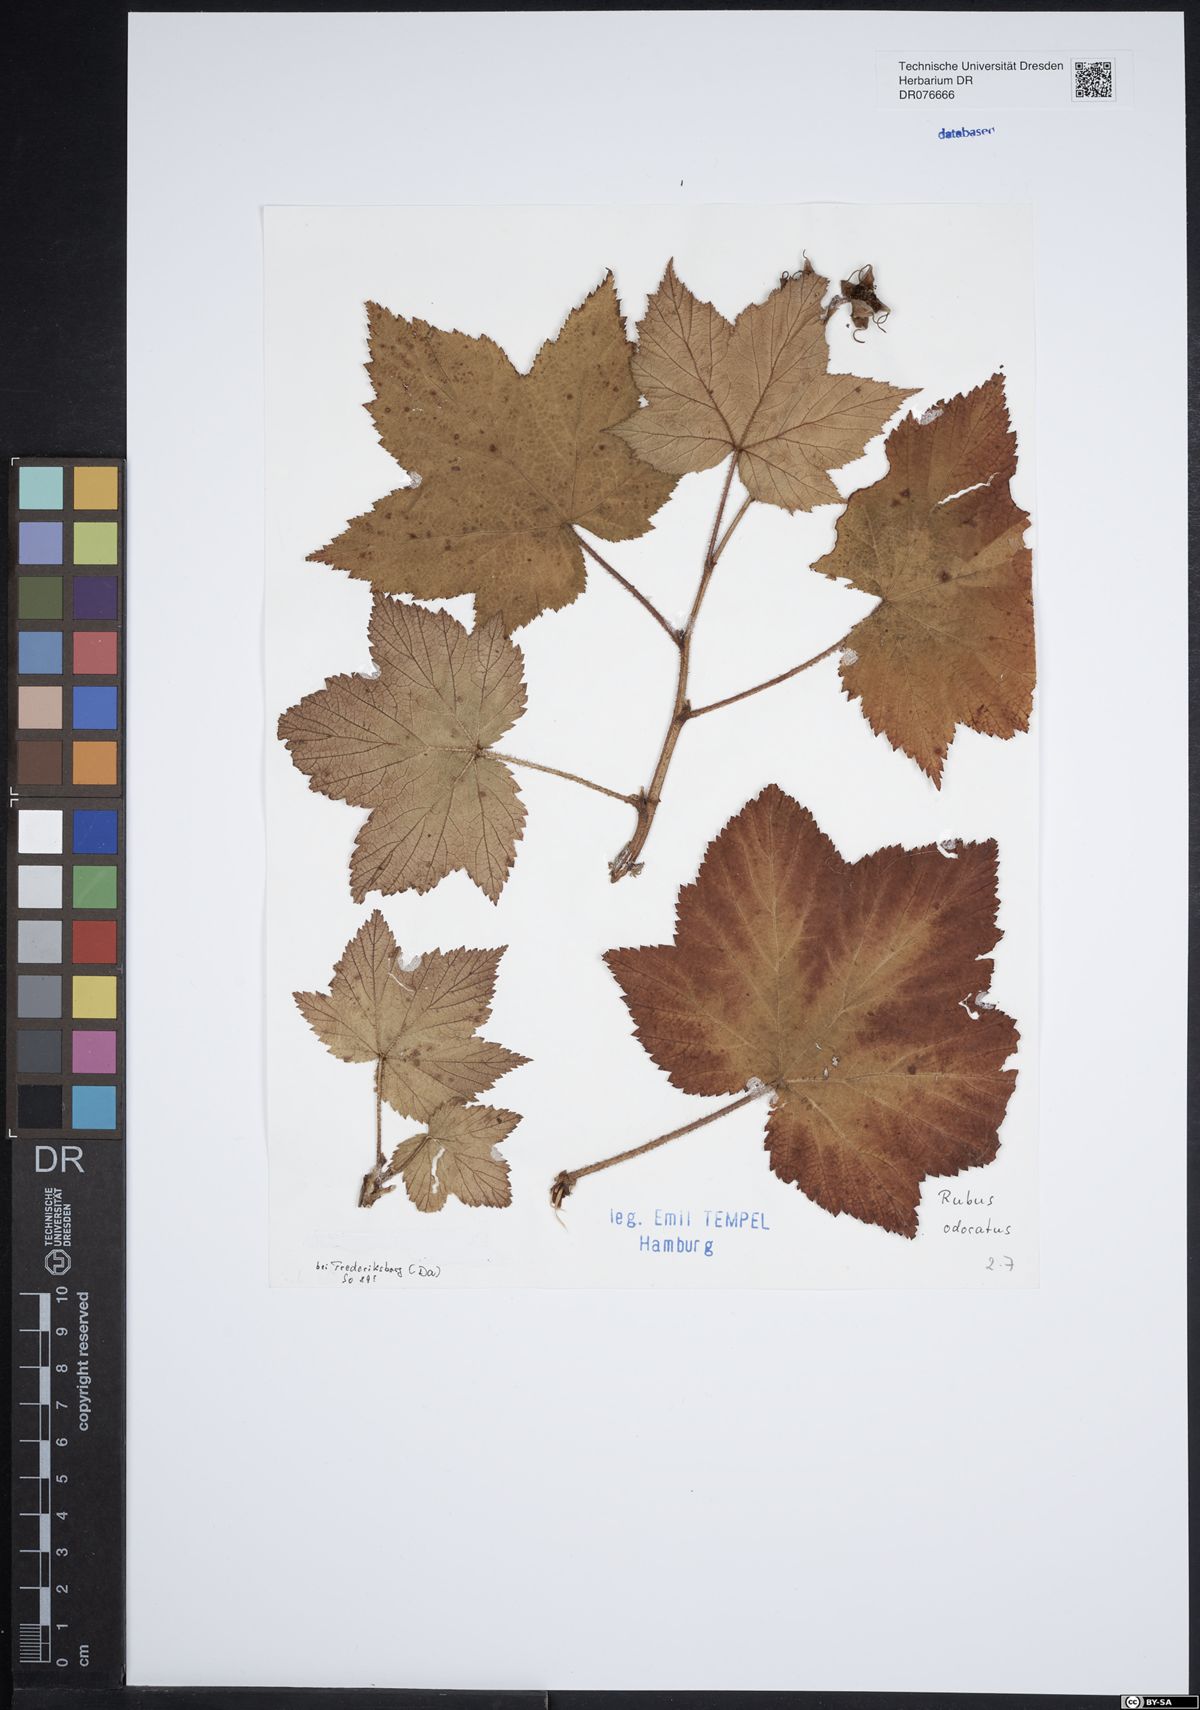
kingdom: Plantae
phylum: Tracheophyta
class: Magnoliopsida
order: Rosales
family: Rosaceae
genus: Rubus
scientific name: Rubus odoratus
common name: Purple-flowered raspberry
